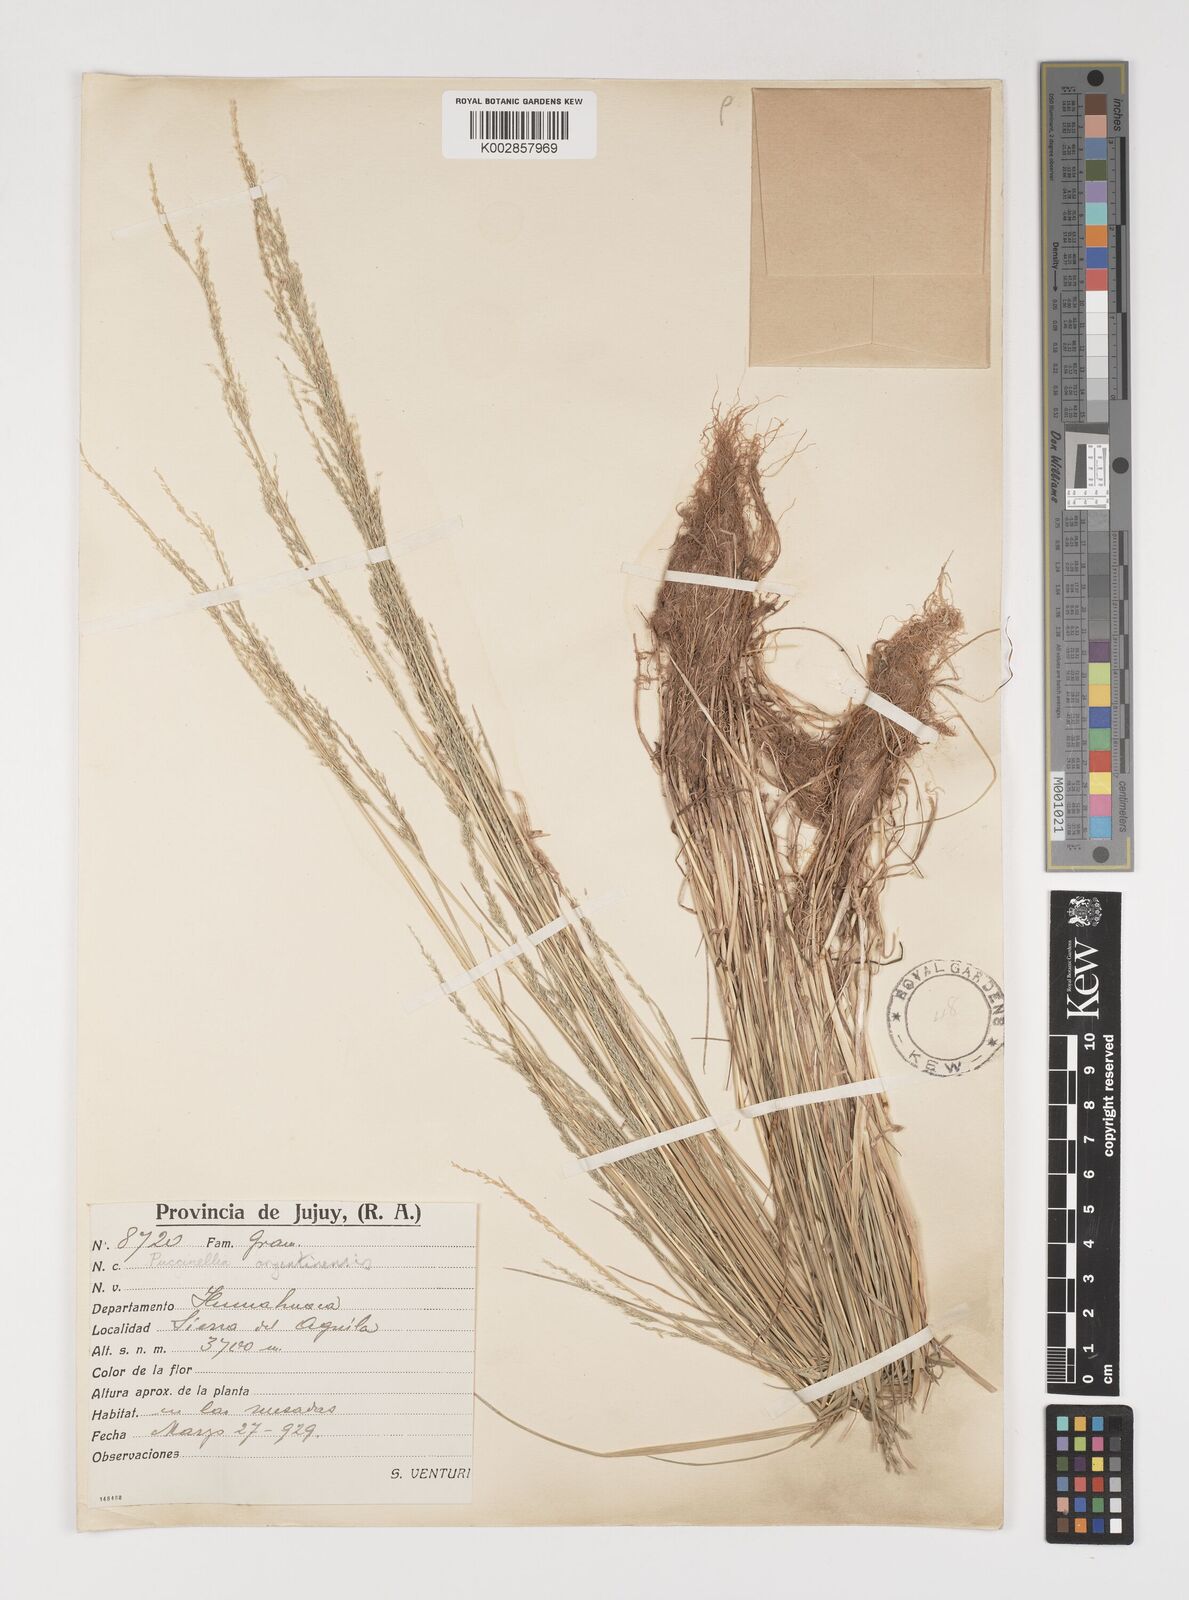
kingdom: Plantae
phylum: Tracheophyta
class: Liliopsida
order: Poales
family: Poaceae
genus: Puccinellia
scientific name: Puccinellia argentinensis
